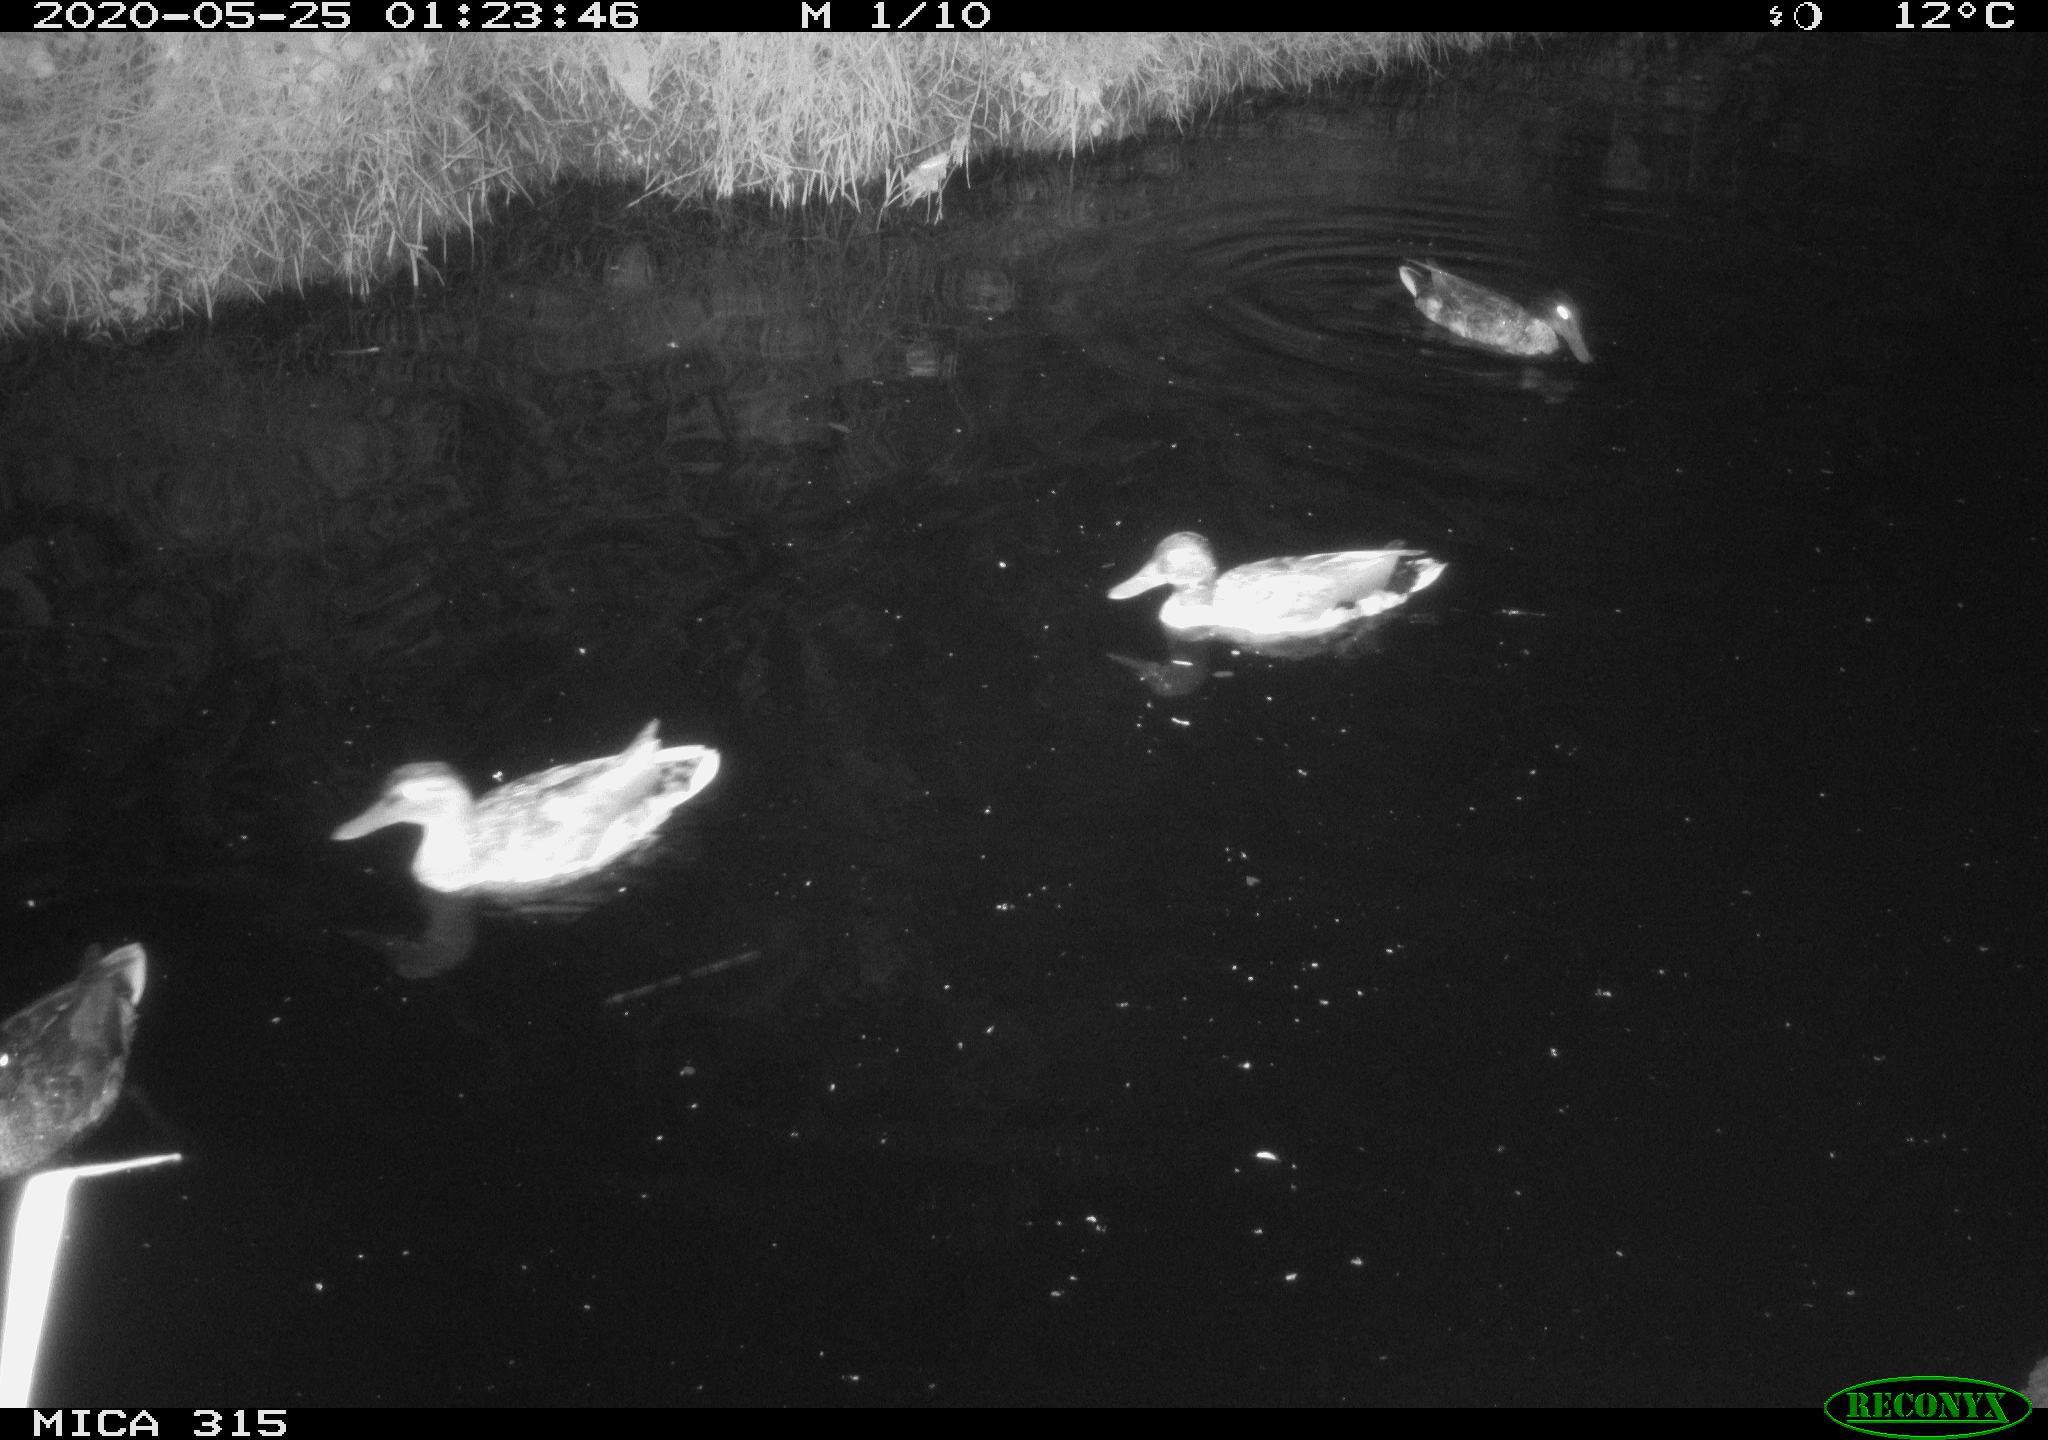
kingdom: Animalia
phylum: Chordata
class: Aves
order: Anseriformes
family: Anatidae
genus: Anas
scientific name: Anas platyrhynchos
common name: Mallard
